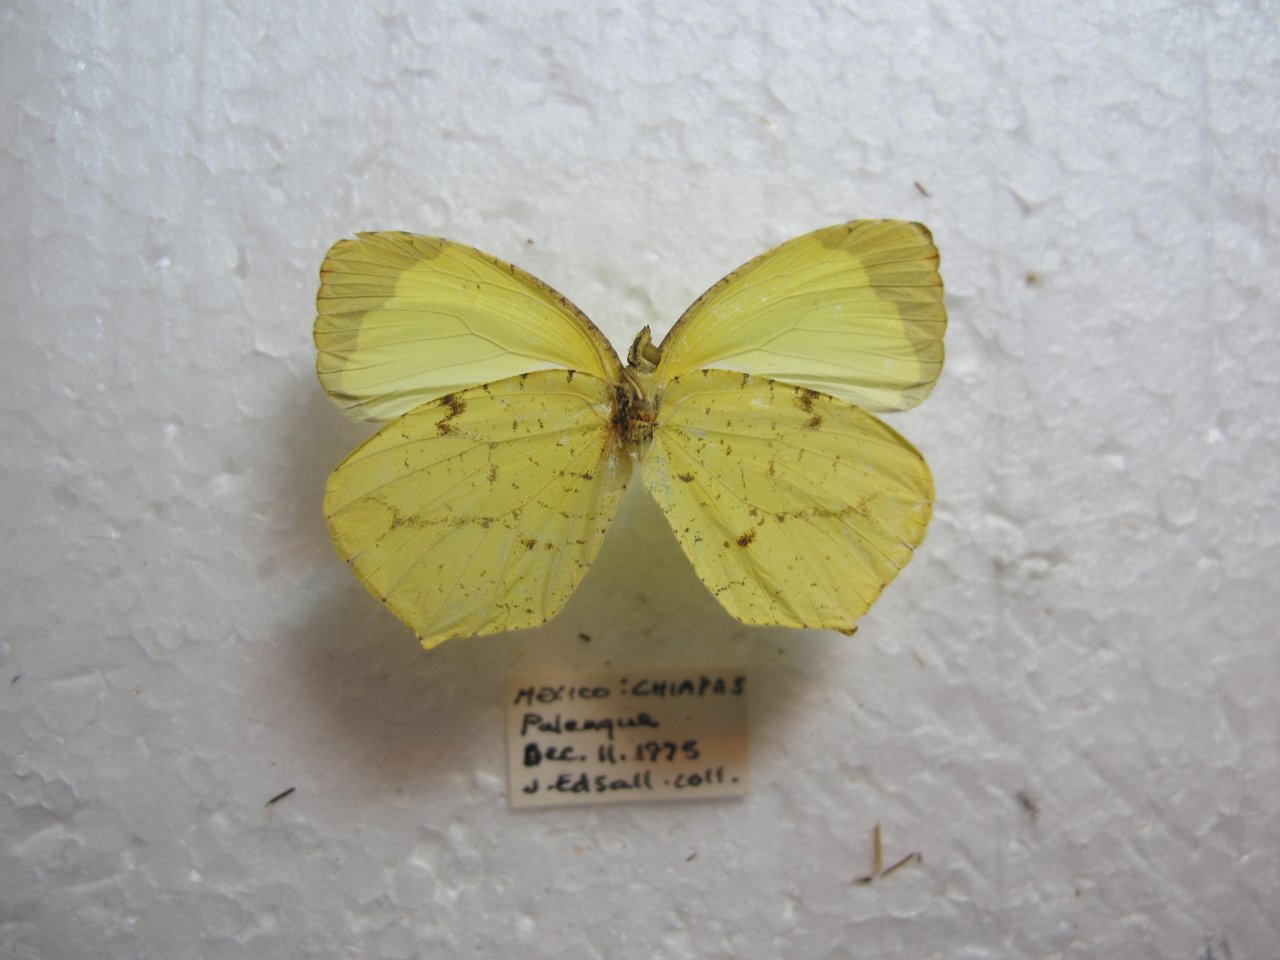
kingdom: Animalia
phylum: Arthropoda
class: Insecta
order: Lepidoptera
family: Pieridae
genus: Eurema
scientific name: Eurema xantochlora
